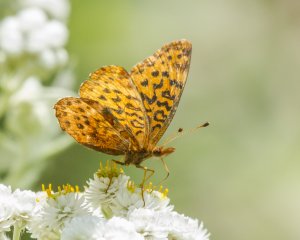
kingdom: Animalia
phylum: Arthropoda
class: Insecta
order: Lepidoptera
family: Nymphalidae
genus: Clossiana
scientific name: Clossiana toddi
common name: Meadow Fritillary
